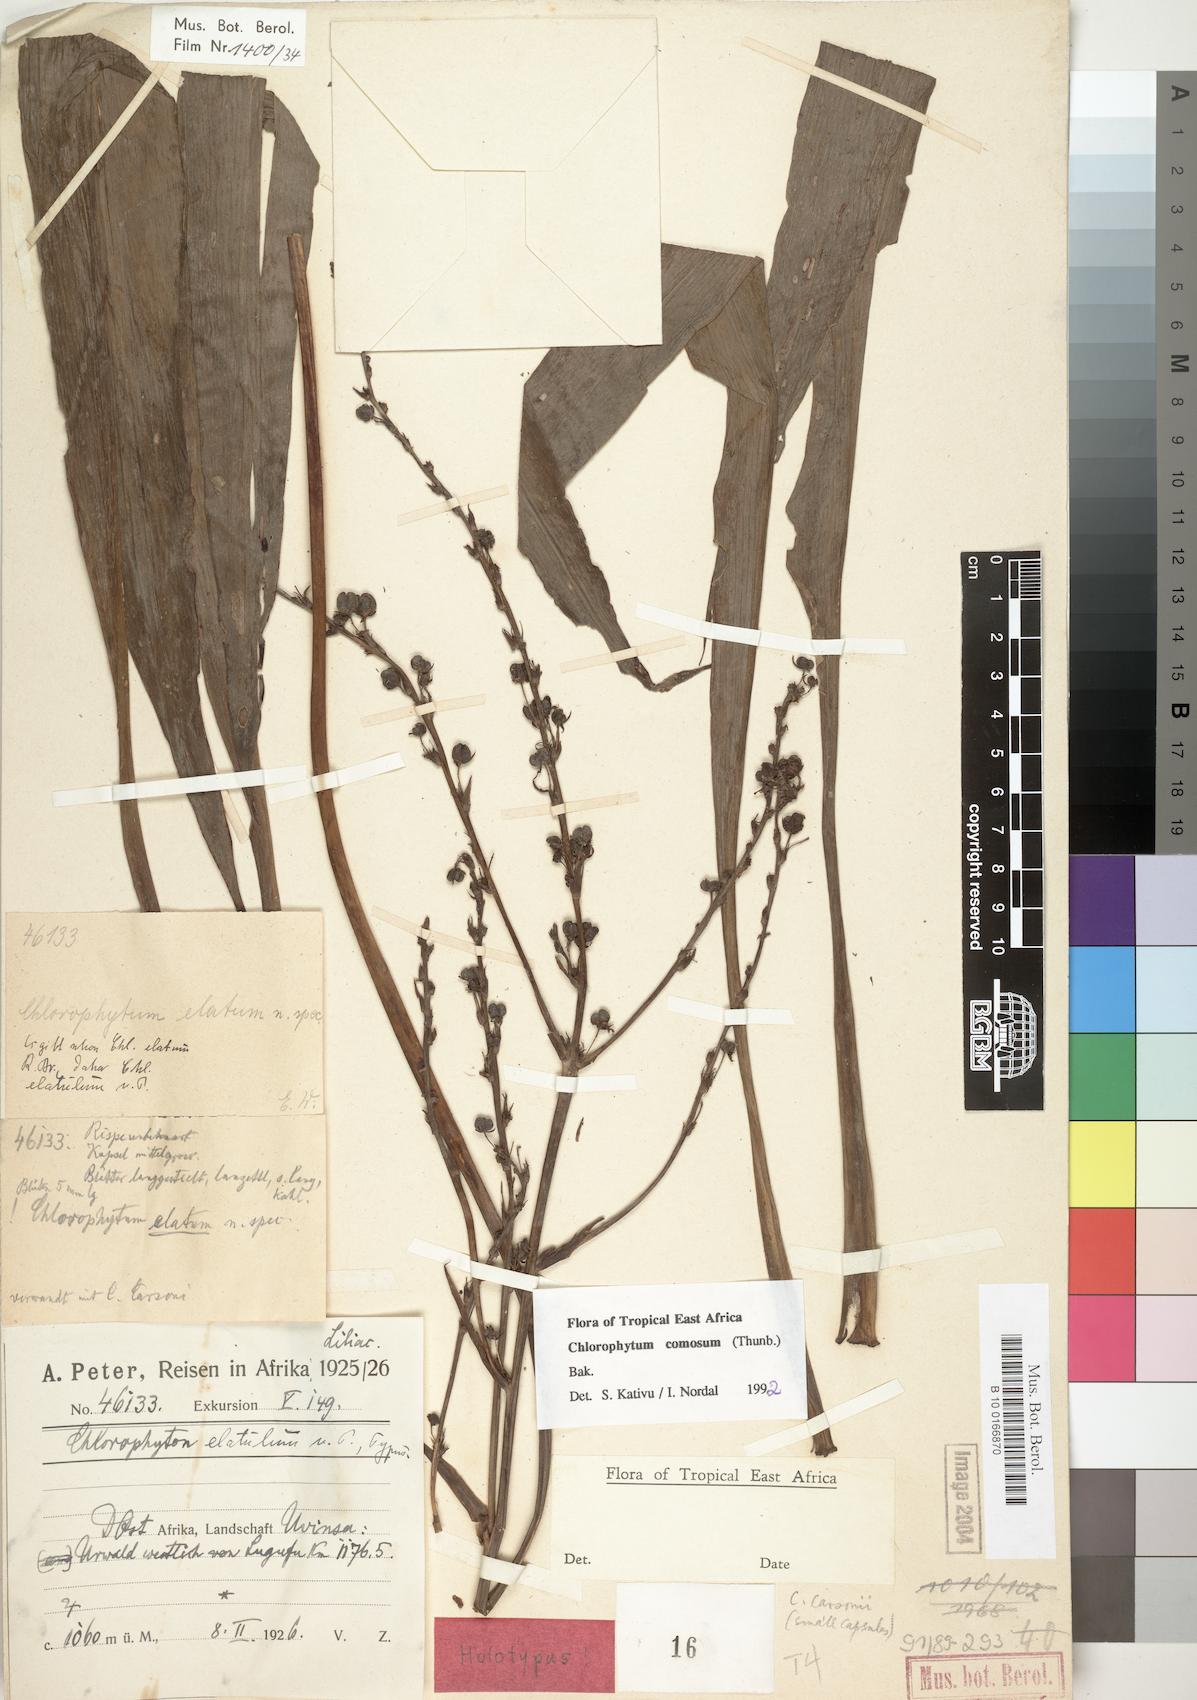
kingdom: Plantae
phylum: Tracheophyta
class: Liliopsida
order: Asparagales
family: Asparagaceae
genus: Chlorophytum
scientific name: Chlorophytum comosum
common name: Spider plant
